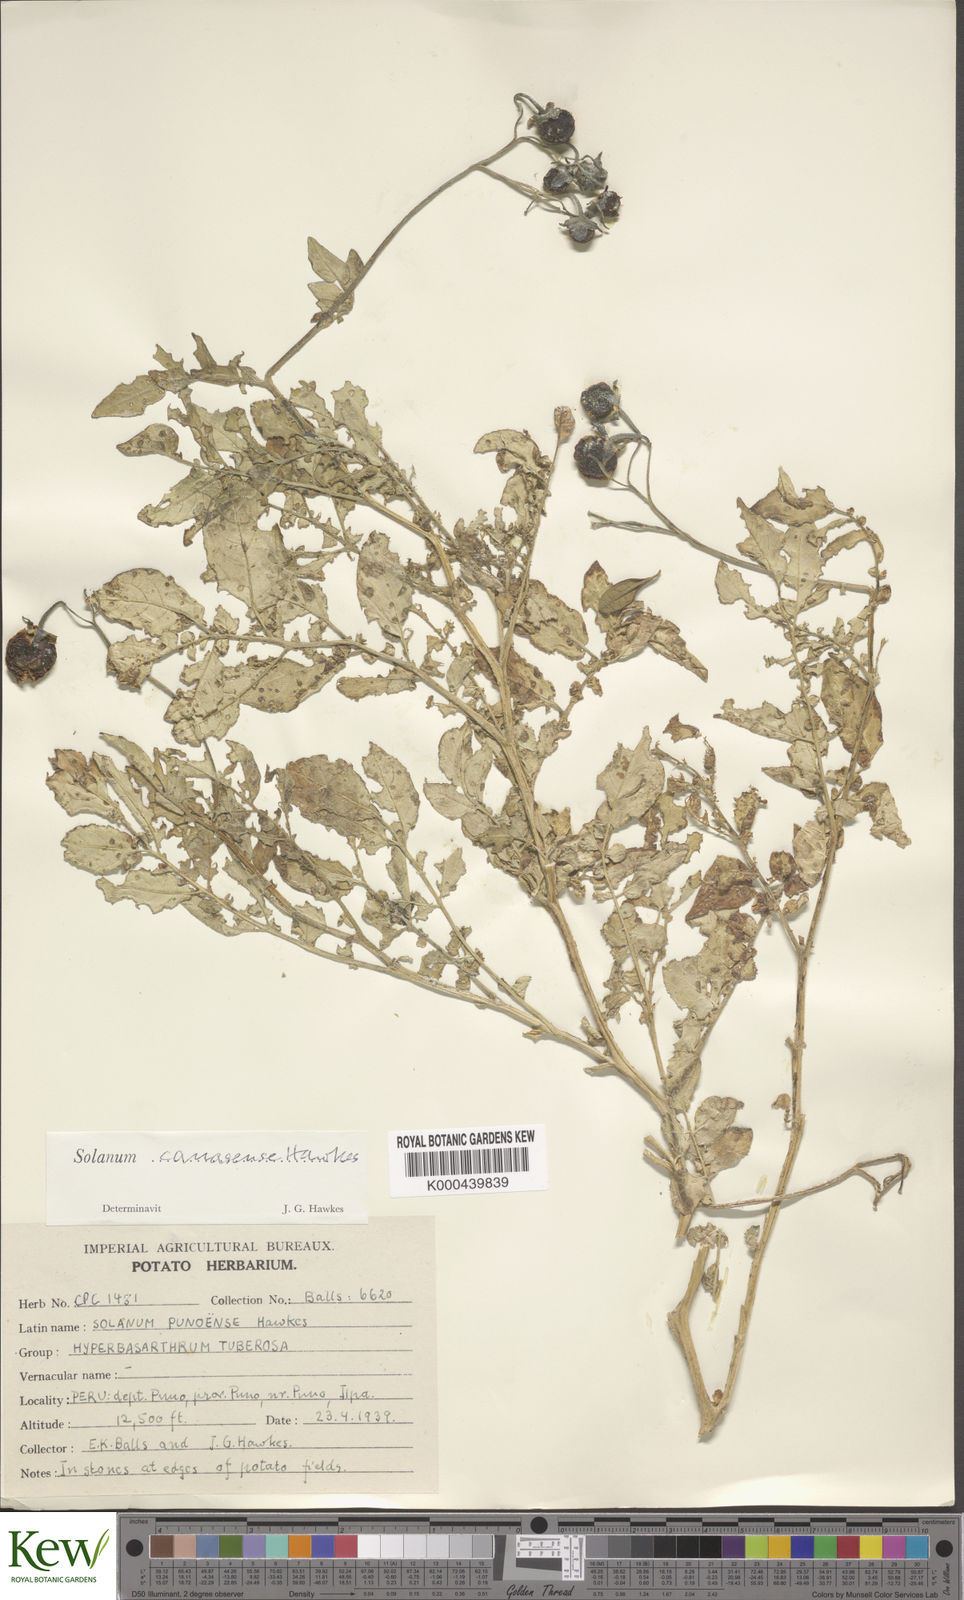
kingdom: Plantae
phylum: Tracheophyta
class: Magnoliopsida
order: Solanales
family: Solanaceae
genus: Solanum
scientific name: Solanum candolleanum
